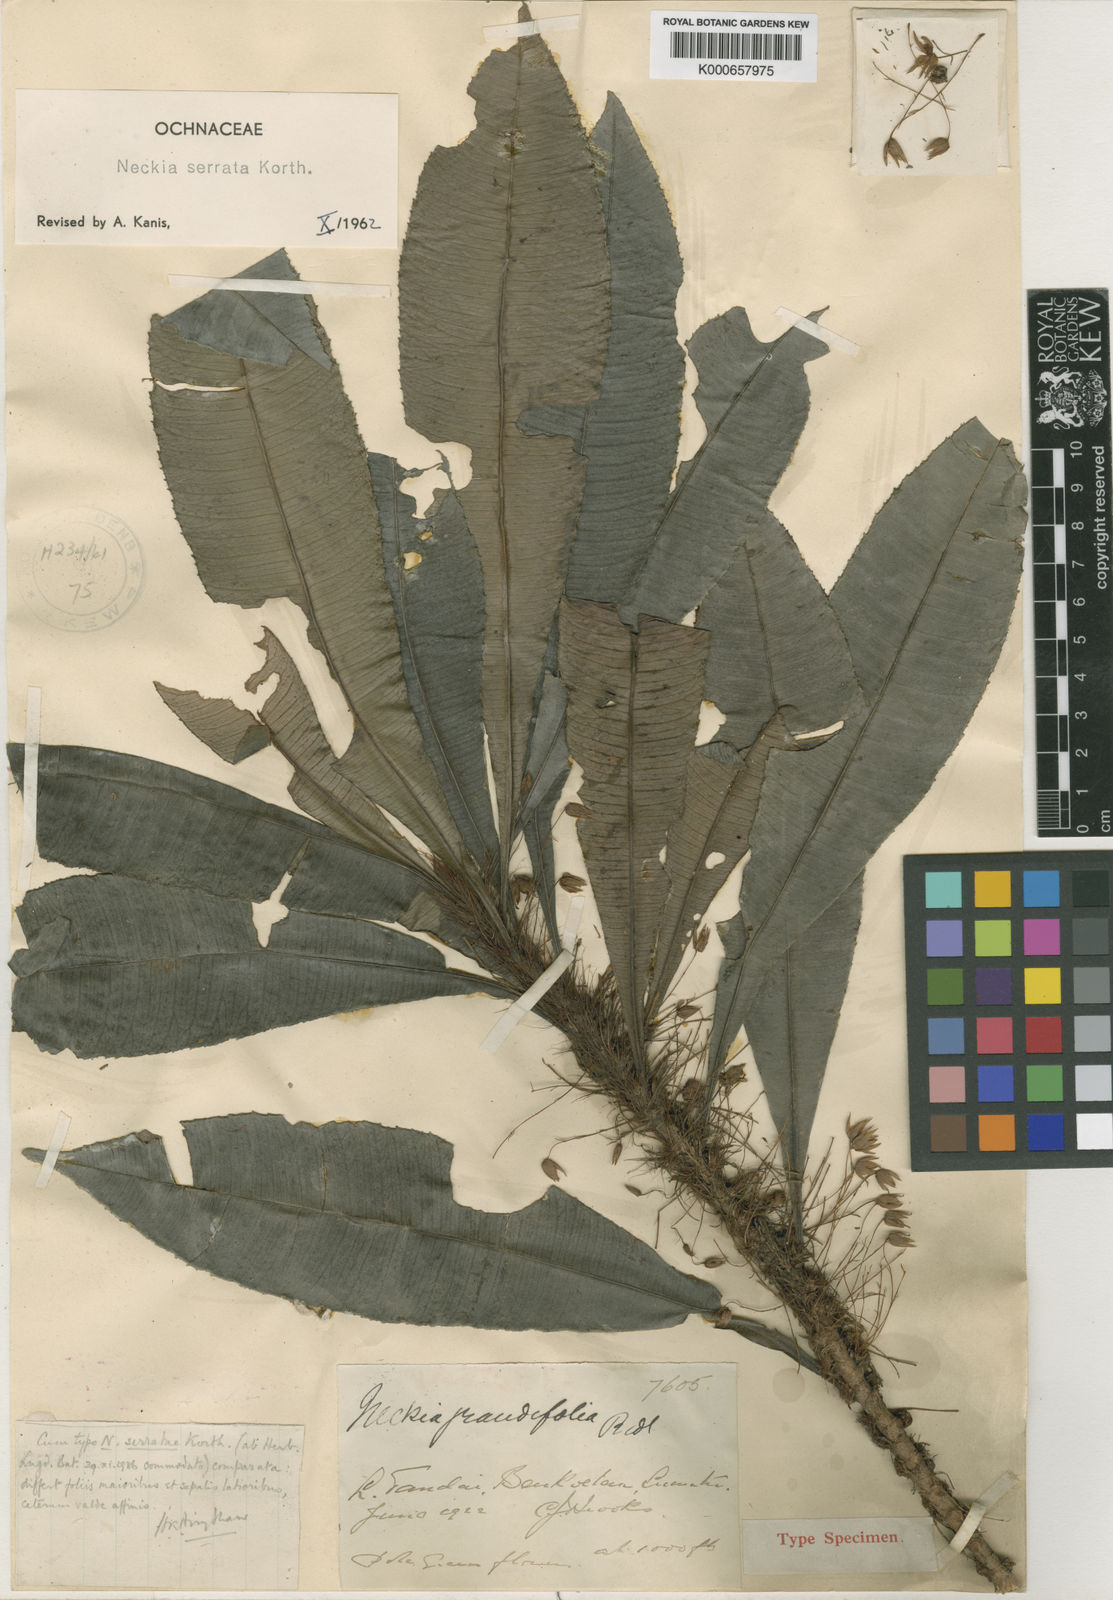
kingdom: Plantae
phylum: Tracheophyta
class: Magnoliopsida
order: Malpighiales
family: Ochnaceae
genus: Neckia
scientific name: Neckia serrata
